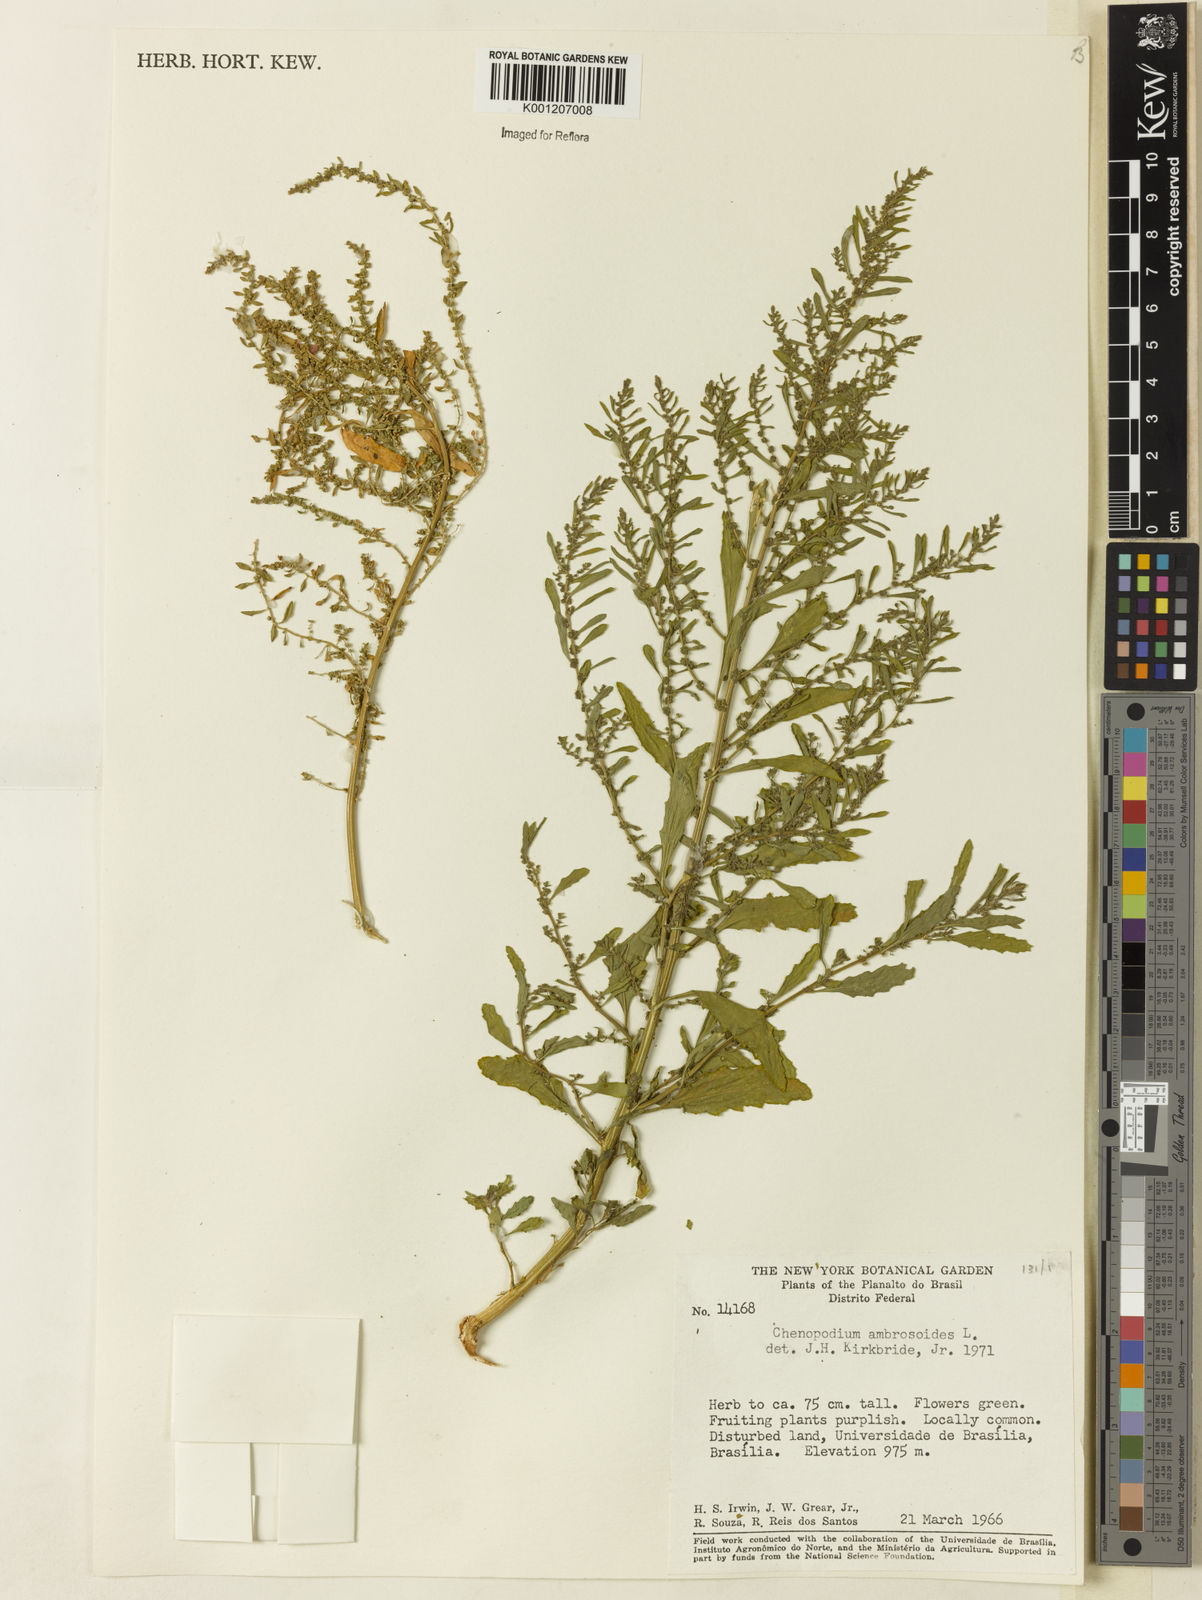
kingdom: Plantae
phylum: Tracheophyta
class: Magnoliopsida
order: Caryophyllales
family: Amaranthaceae
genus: Dysphania
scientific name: Dysphania ambrosioides
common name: Wormseed
